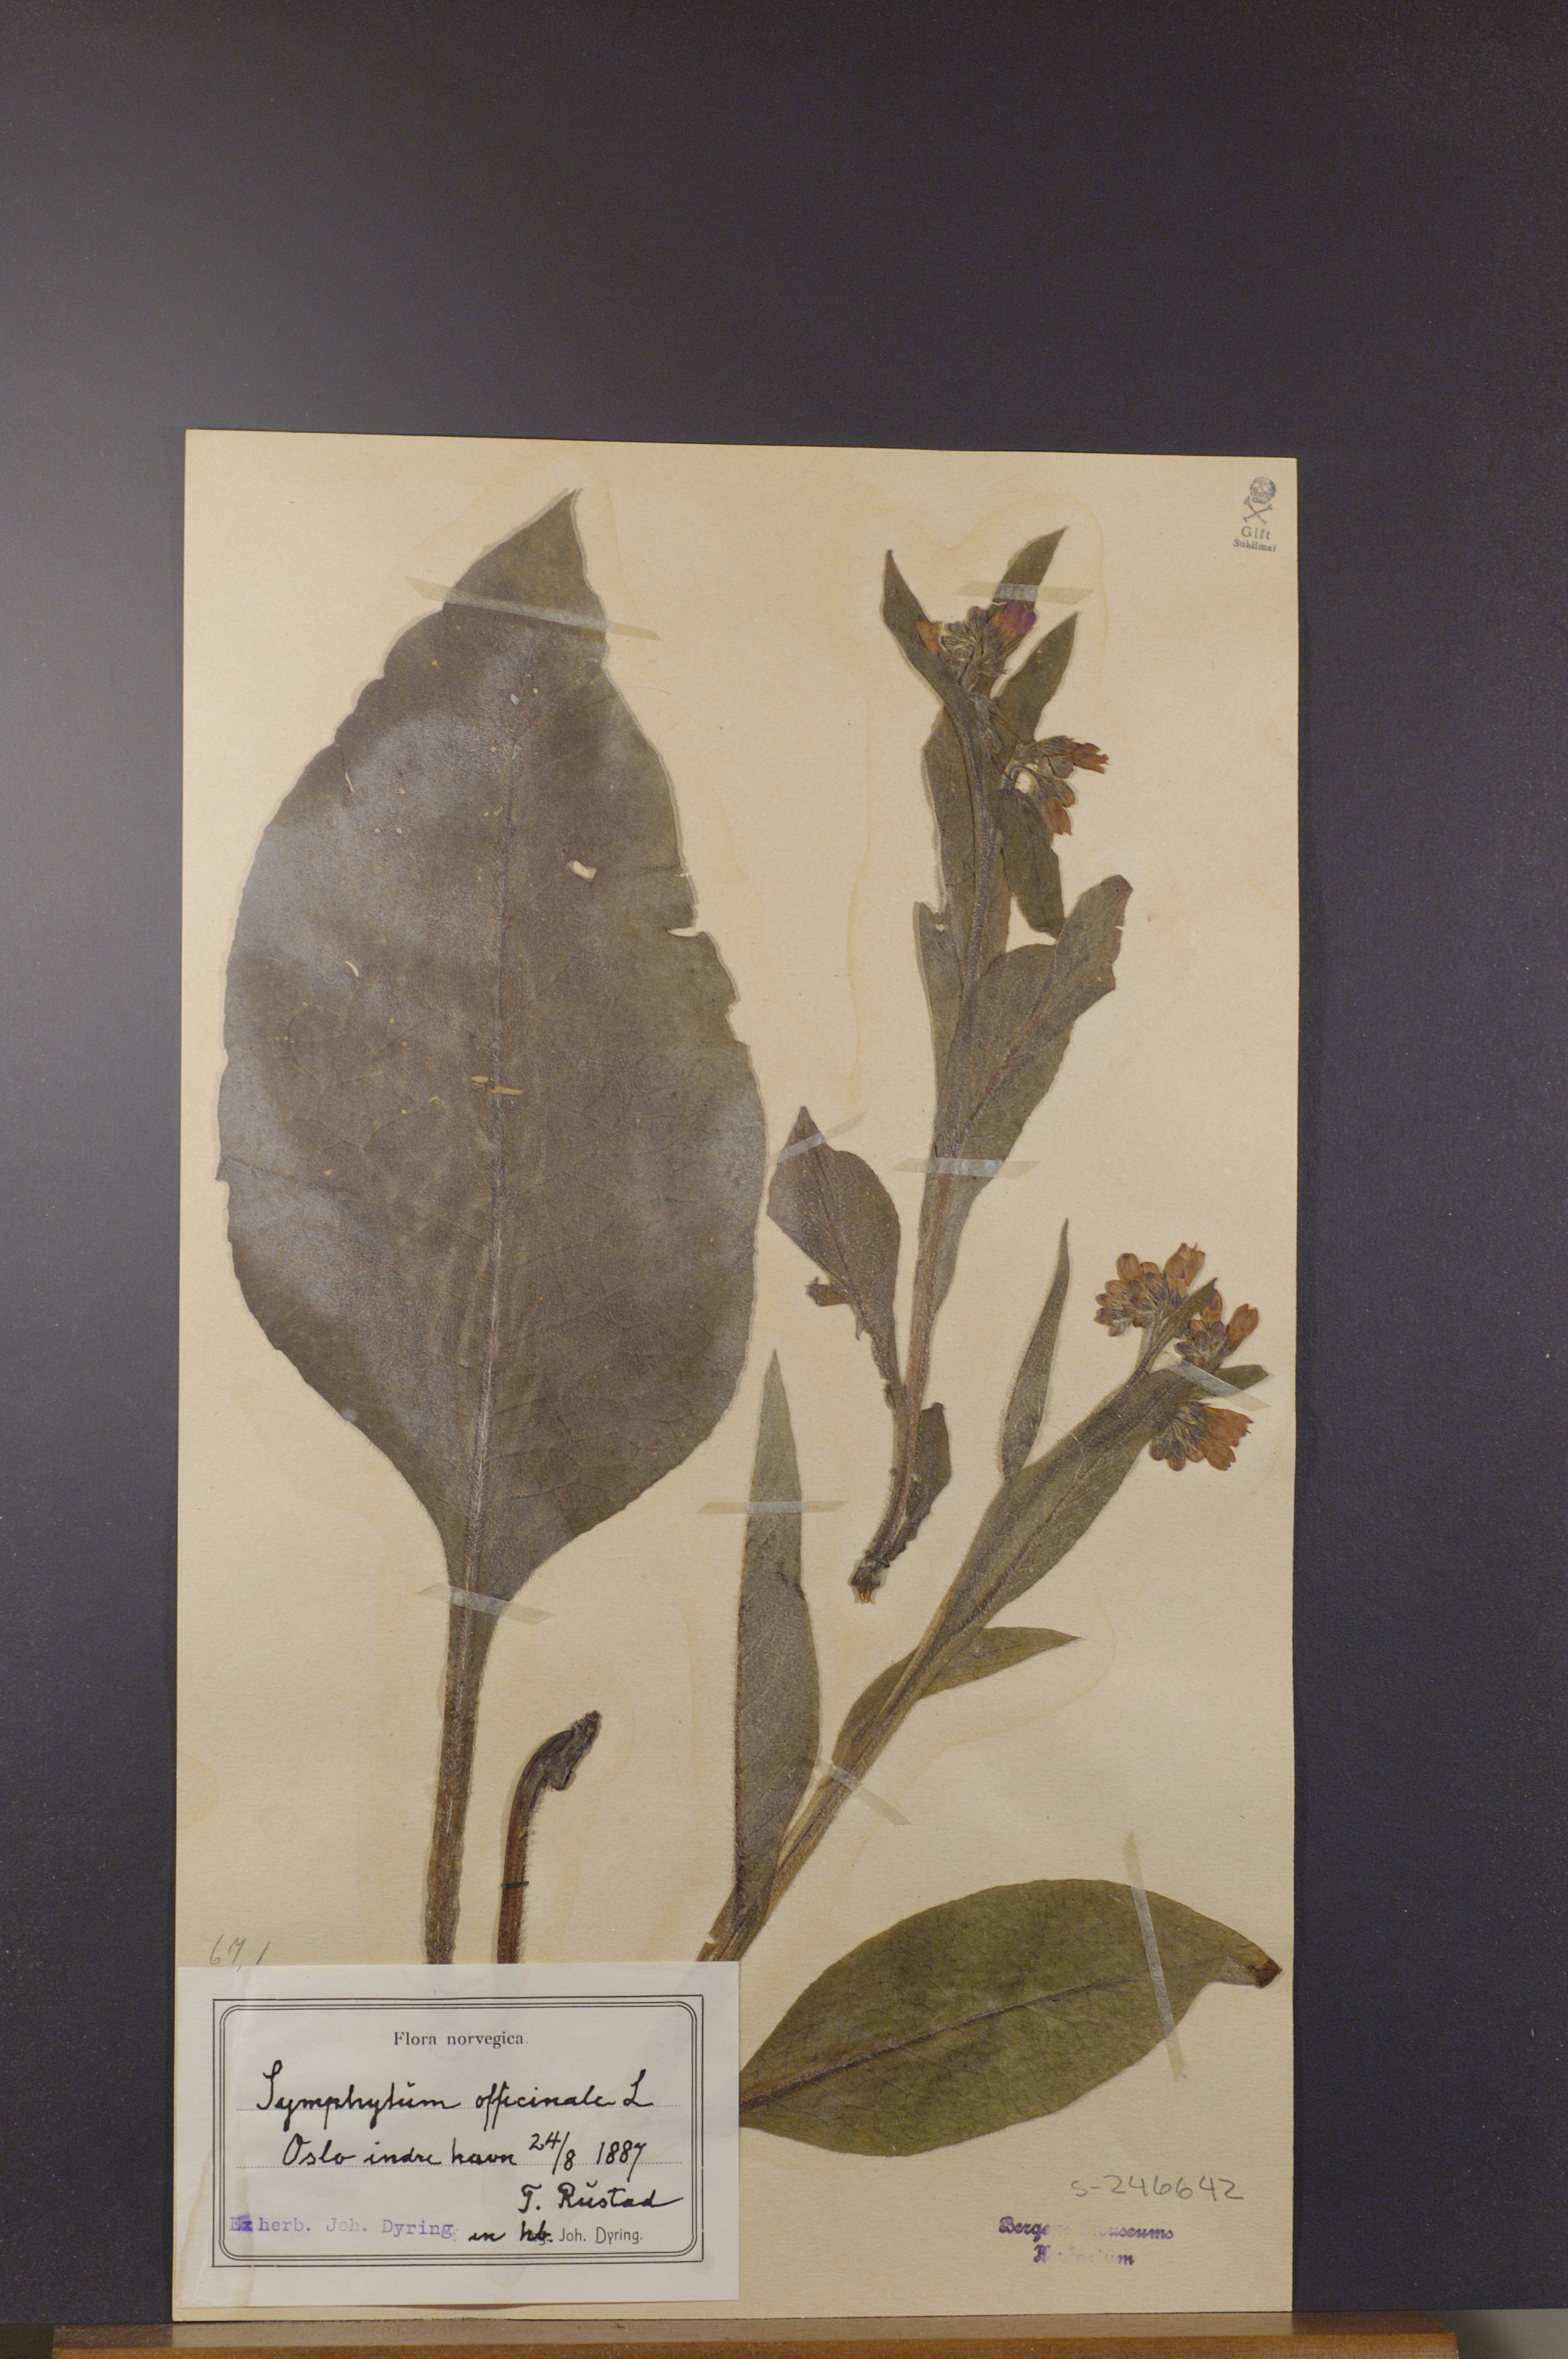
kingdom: Plantae
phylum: Tracheophyta
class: Magnoliopsida
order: Boraginales
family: Boraginaceae
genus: Symphytum
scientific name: Symphytum officinale
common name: Common comfrey
